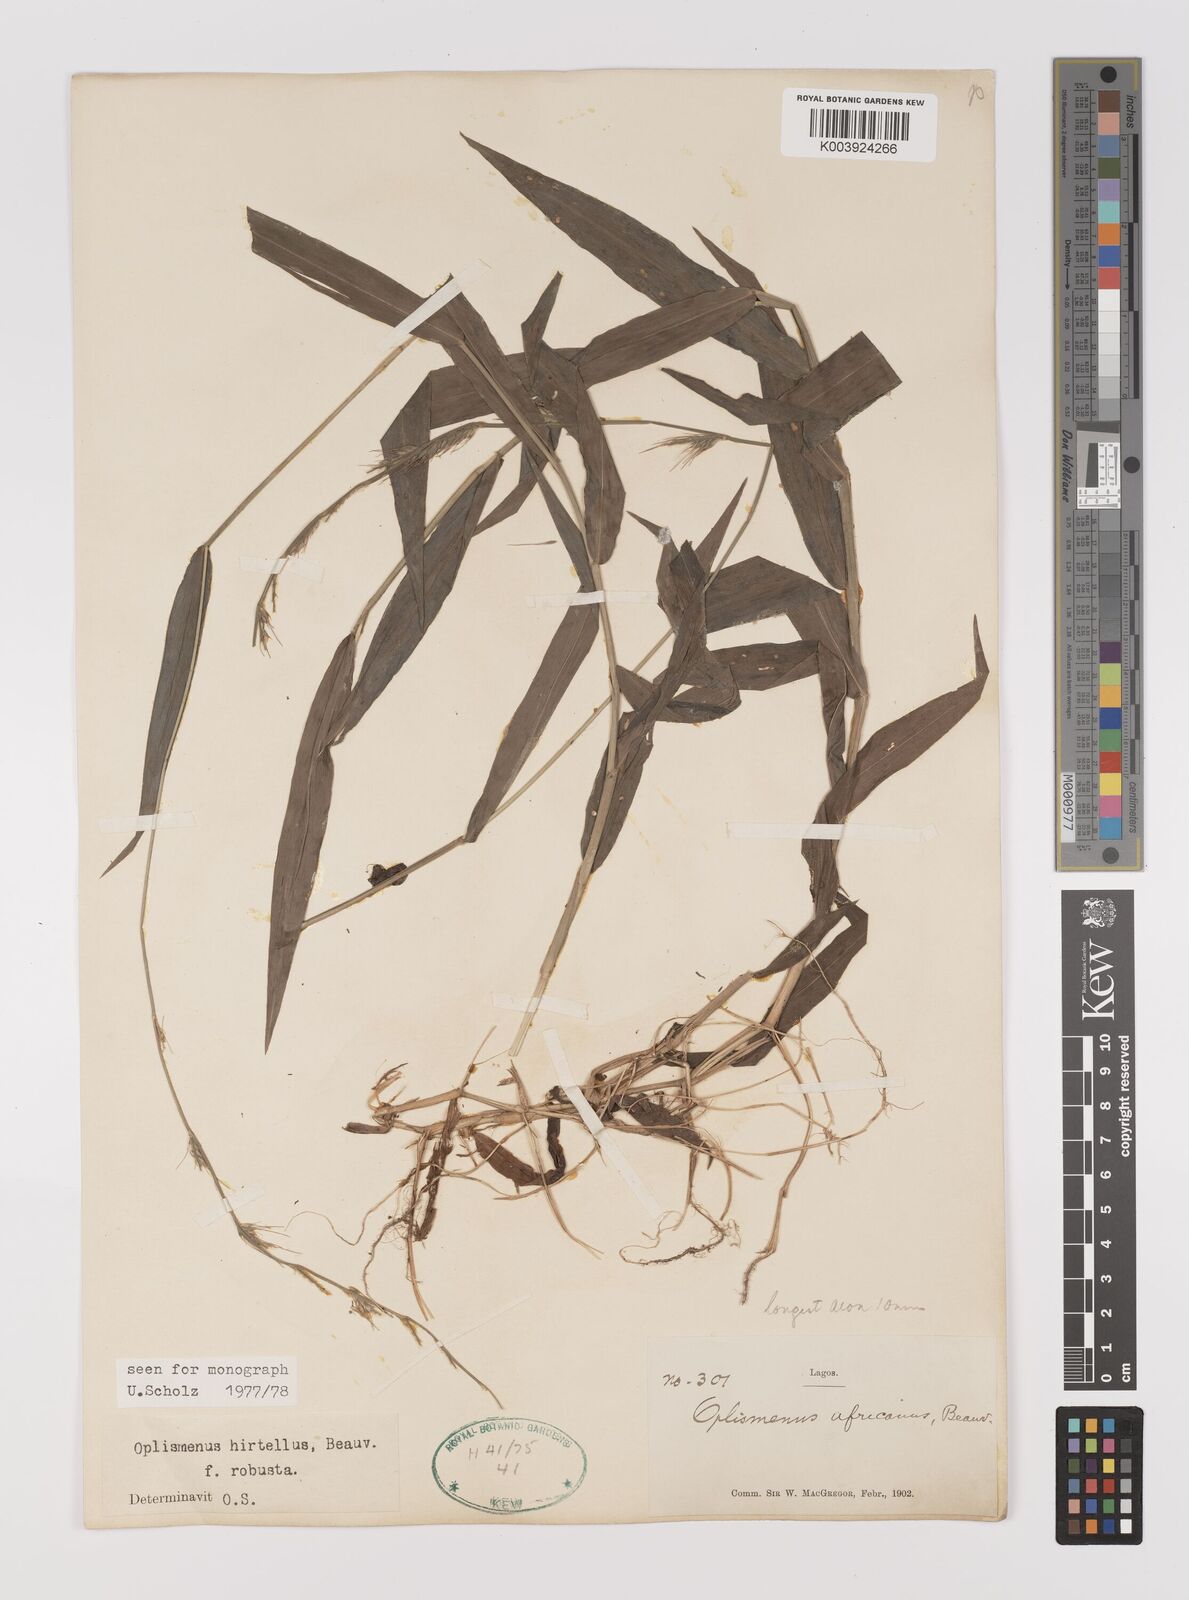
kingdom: Plantae
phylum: Tracheophyta
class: Liliopsida
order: Poales
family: Poaceae
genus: Oplismenus
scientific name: Oplismenus hirtellus
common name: Basketgrass
